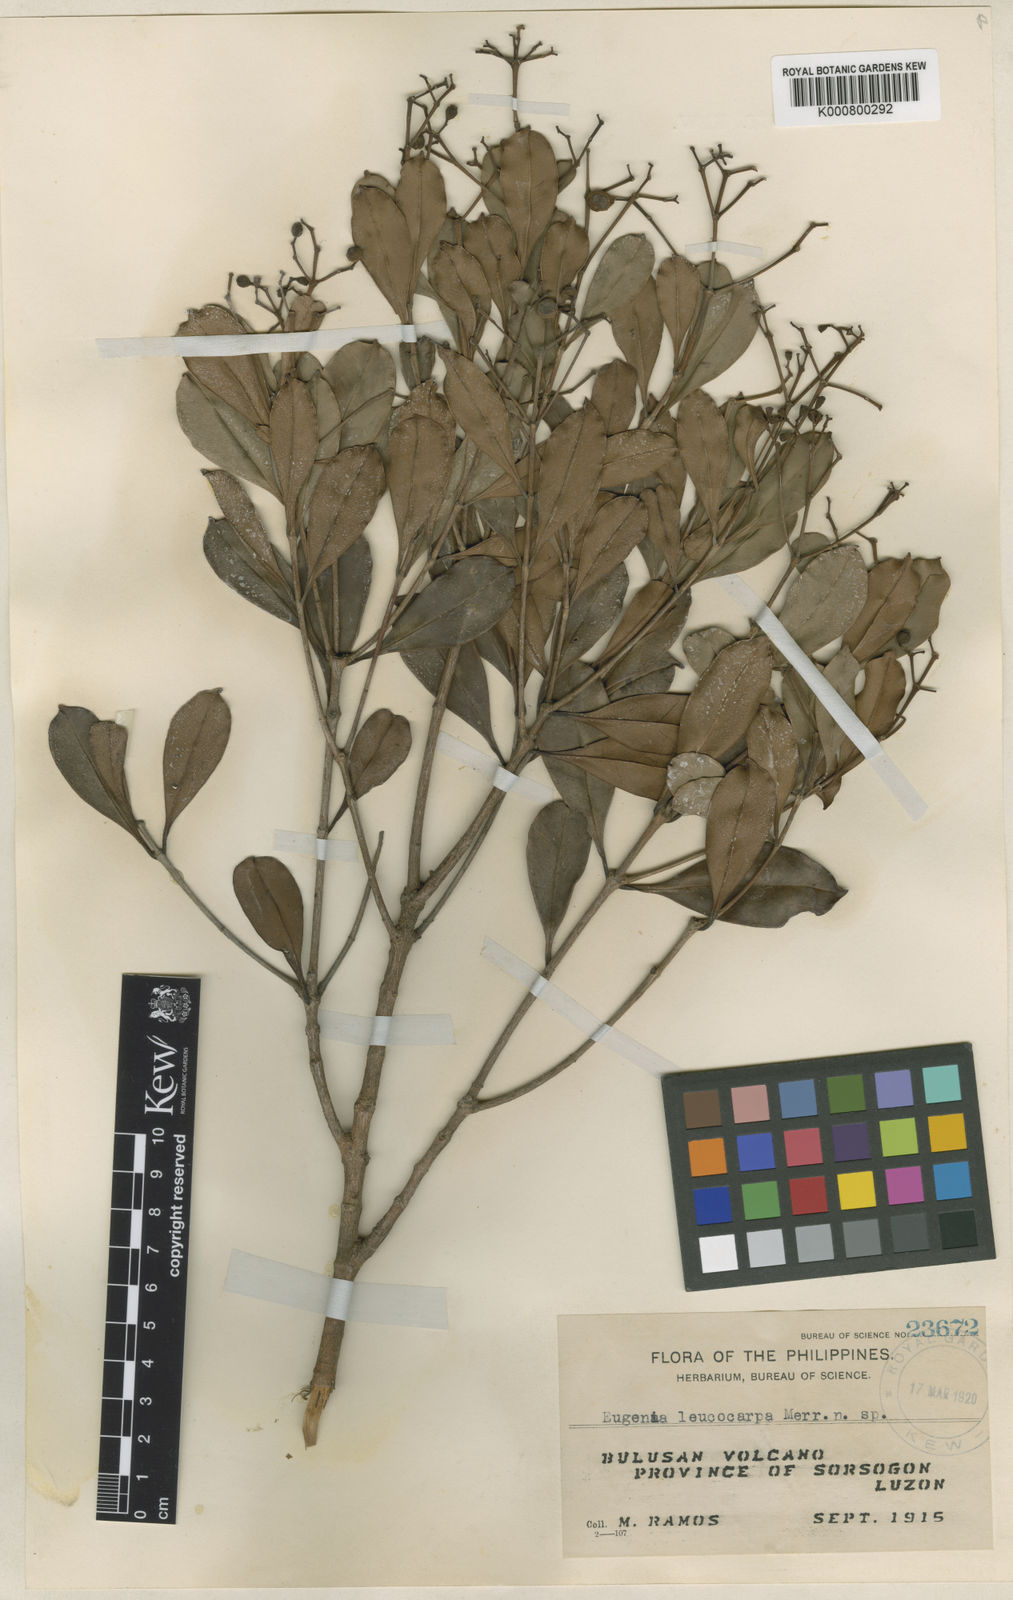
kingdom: Plantae
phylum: Tracheophyta
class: Magnoliopsida
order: Myrtales
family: Myrtaceae
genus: Syzygium
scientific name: Syzygium mainitense
